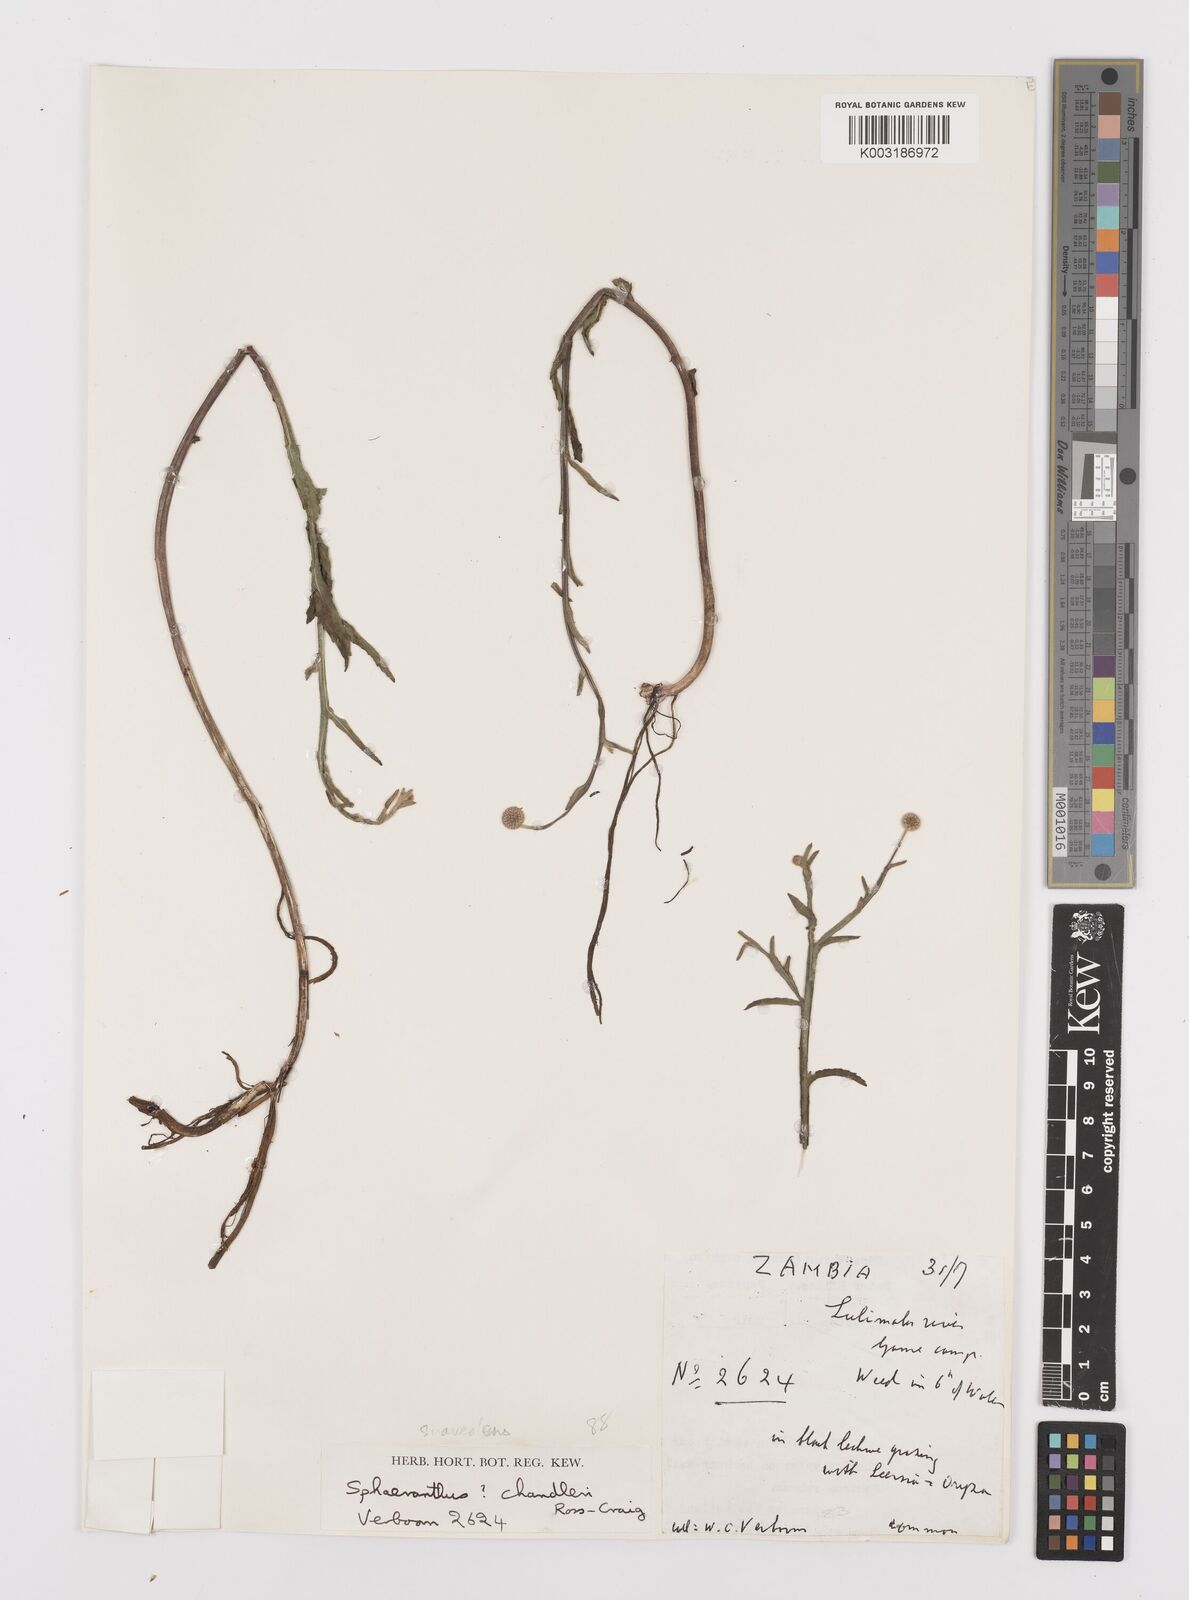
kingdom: Plantae
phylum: Tracheophyta
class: Magnoliopsida
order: Asterales
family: Asteraceae
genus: Sphaeranthus
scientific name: Sphaeranthus talbotii
